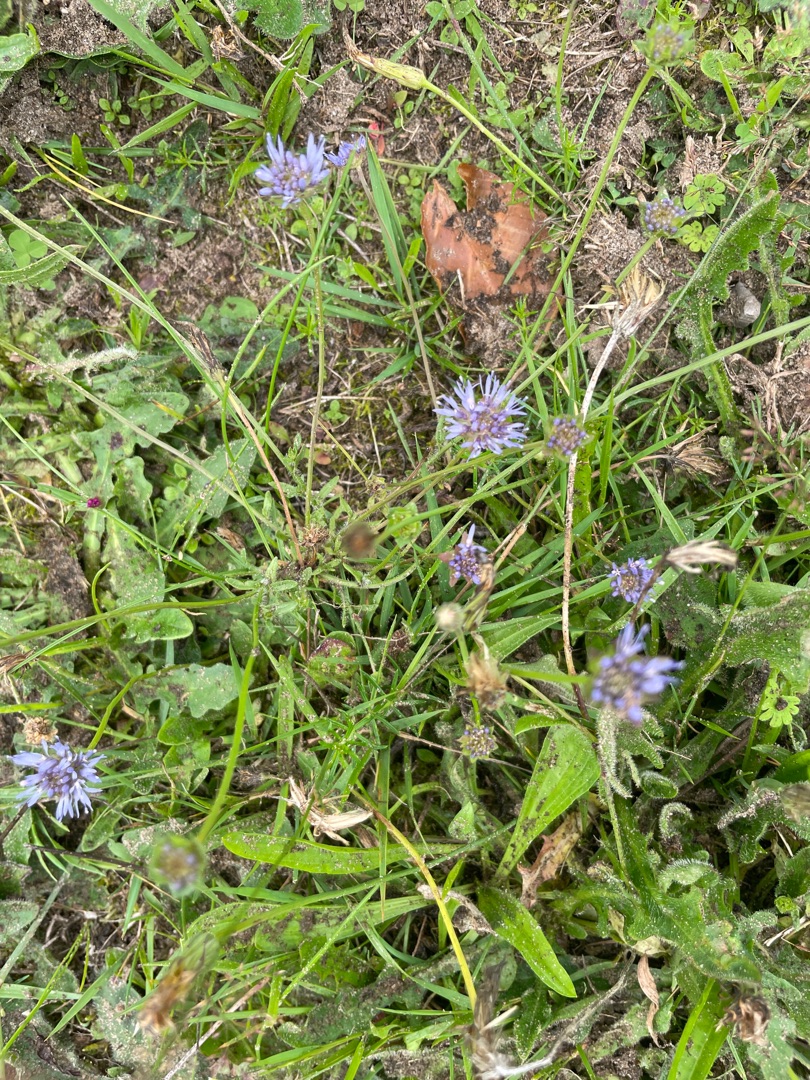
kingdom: Plantae
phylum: Tracheophyta
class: Magnoliopsida
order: Asterales
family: Campanulaceae
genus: Jasione
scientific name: Jasione montana
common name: Blåmunke
